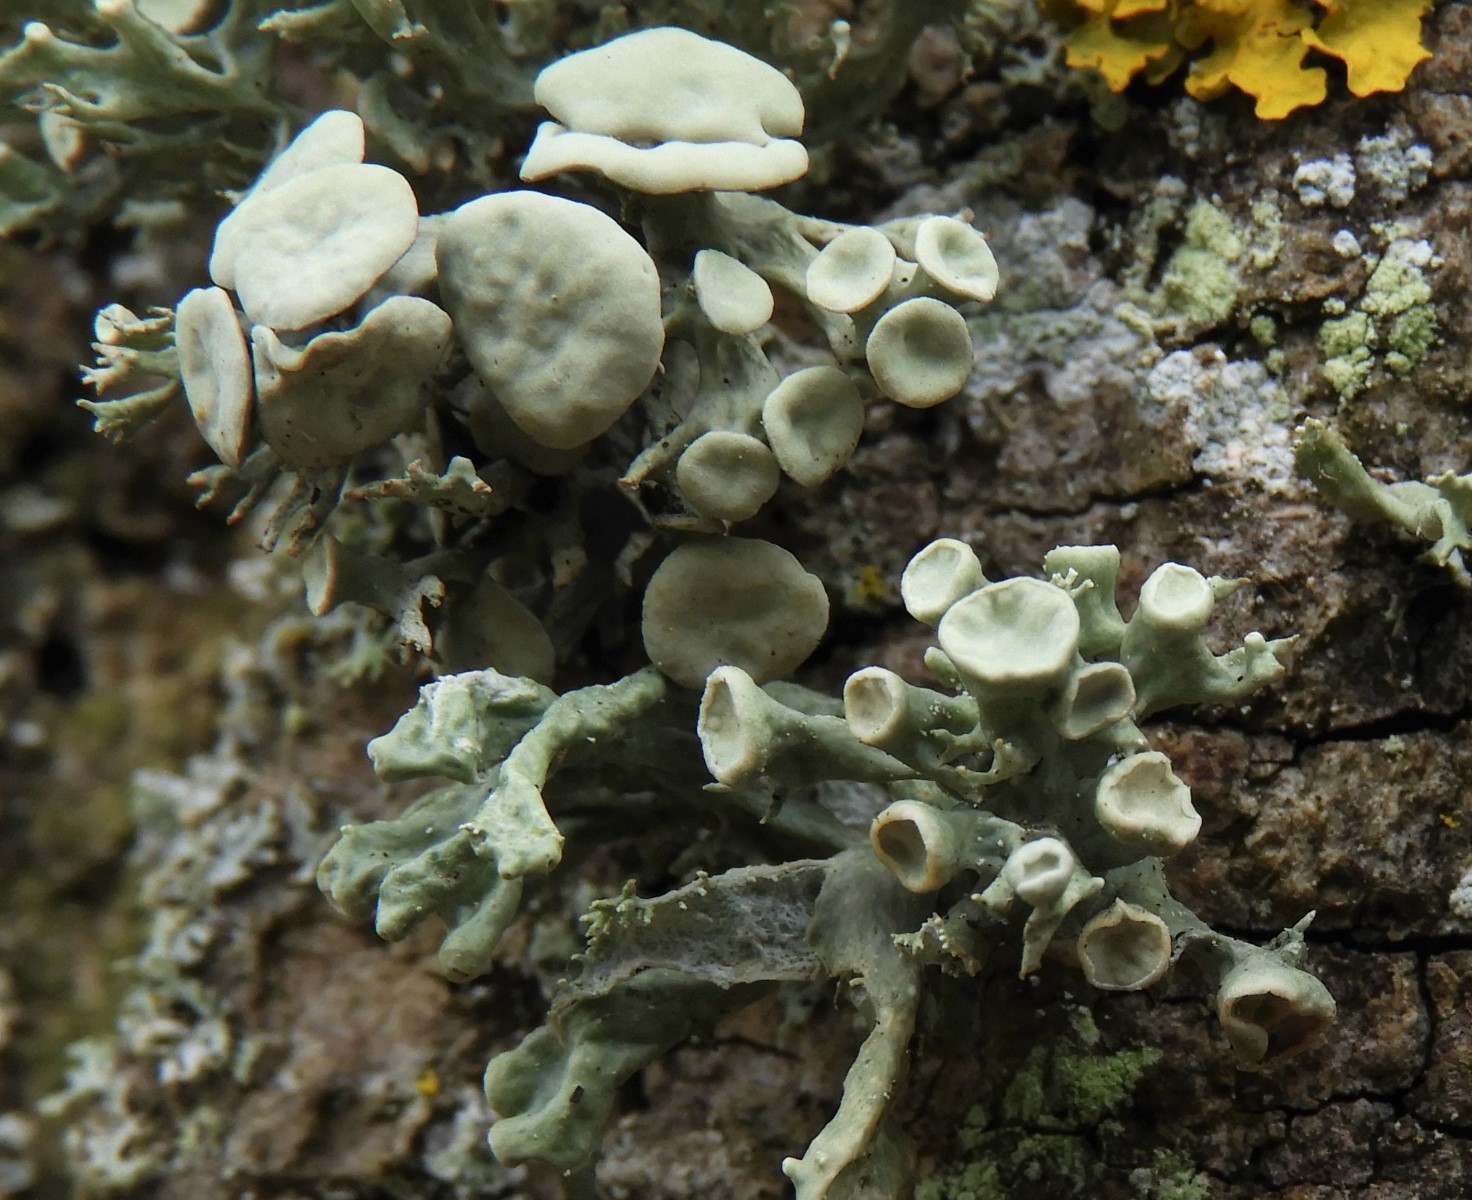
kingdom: Fungi
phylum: Ascomycota
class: Lecanoromycetes
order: Lecanorales
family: Ramalinaceae
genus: Ramalina
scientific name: Ramalina fastigiata
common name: tue-grenlav
